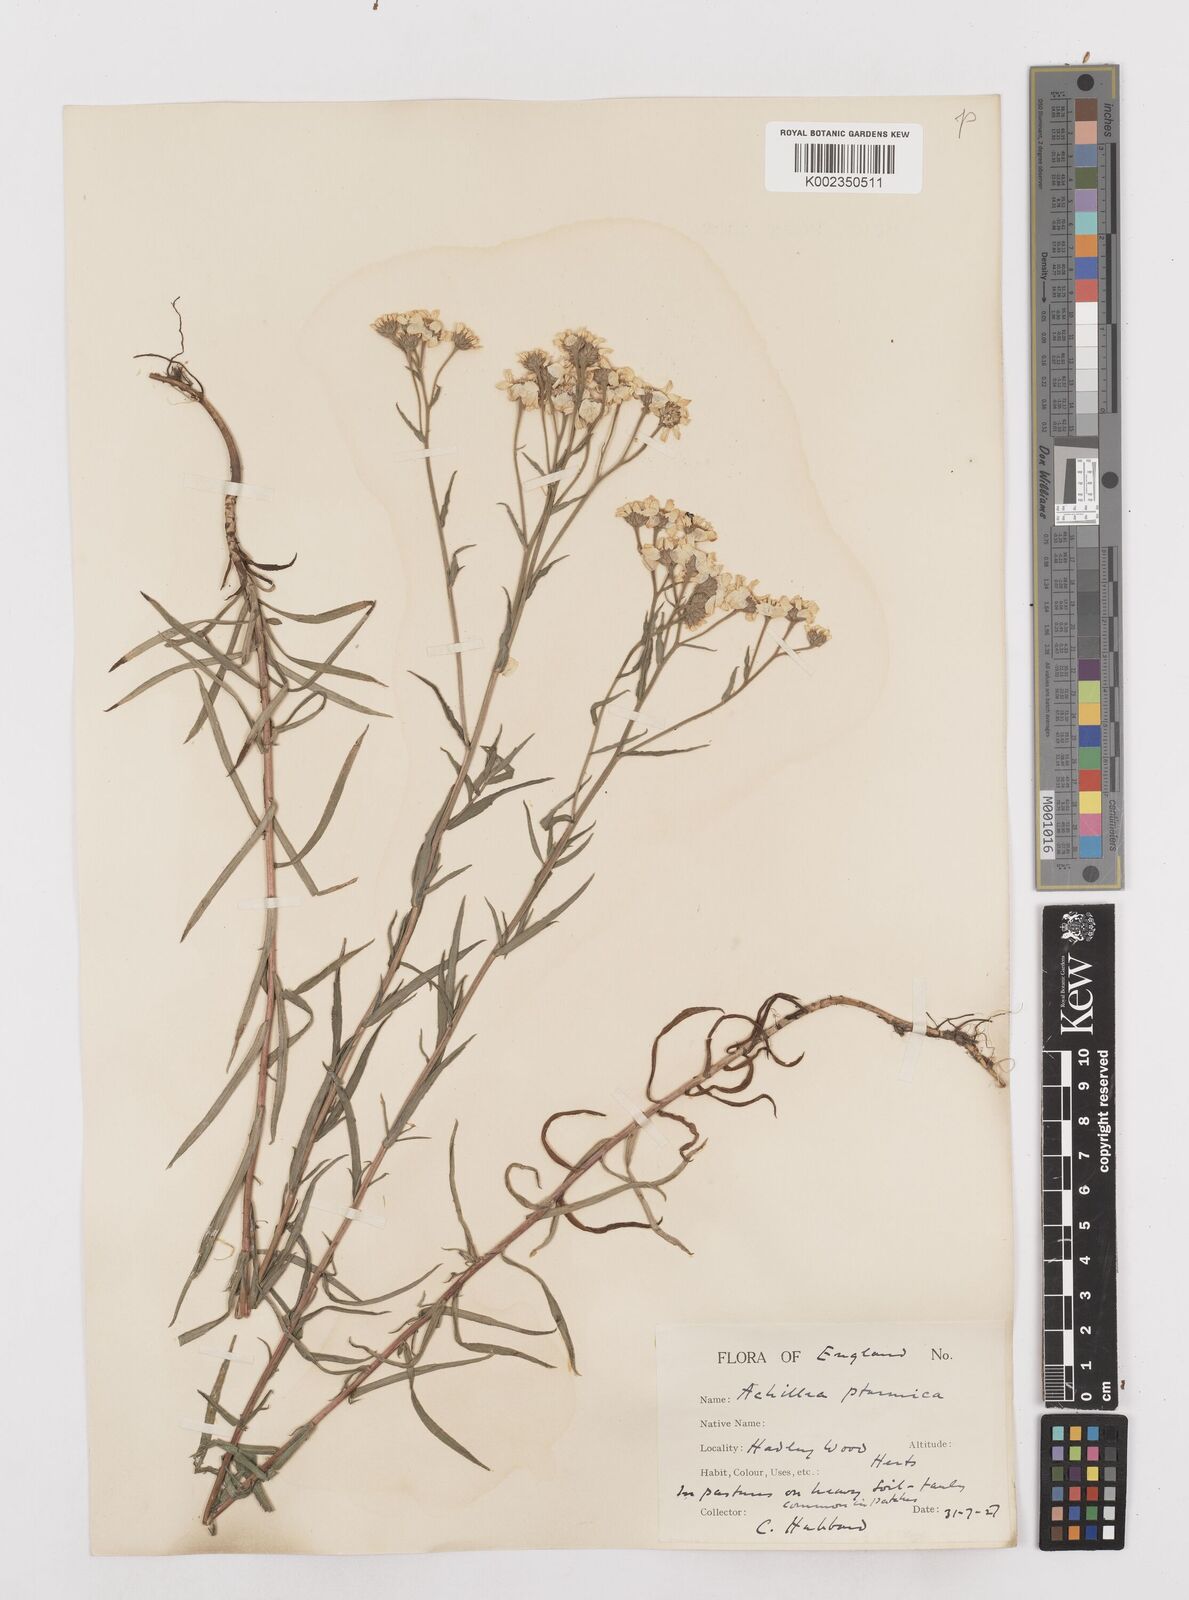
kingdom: Plantae
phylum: Tracheophyta
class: Magnoliopsida
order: Asterales
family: Asteraceae
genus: Achillea
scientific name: Achillea ptarmica
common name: Sneezeweed
